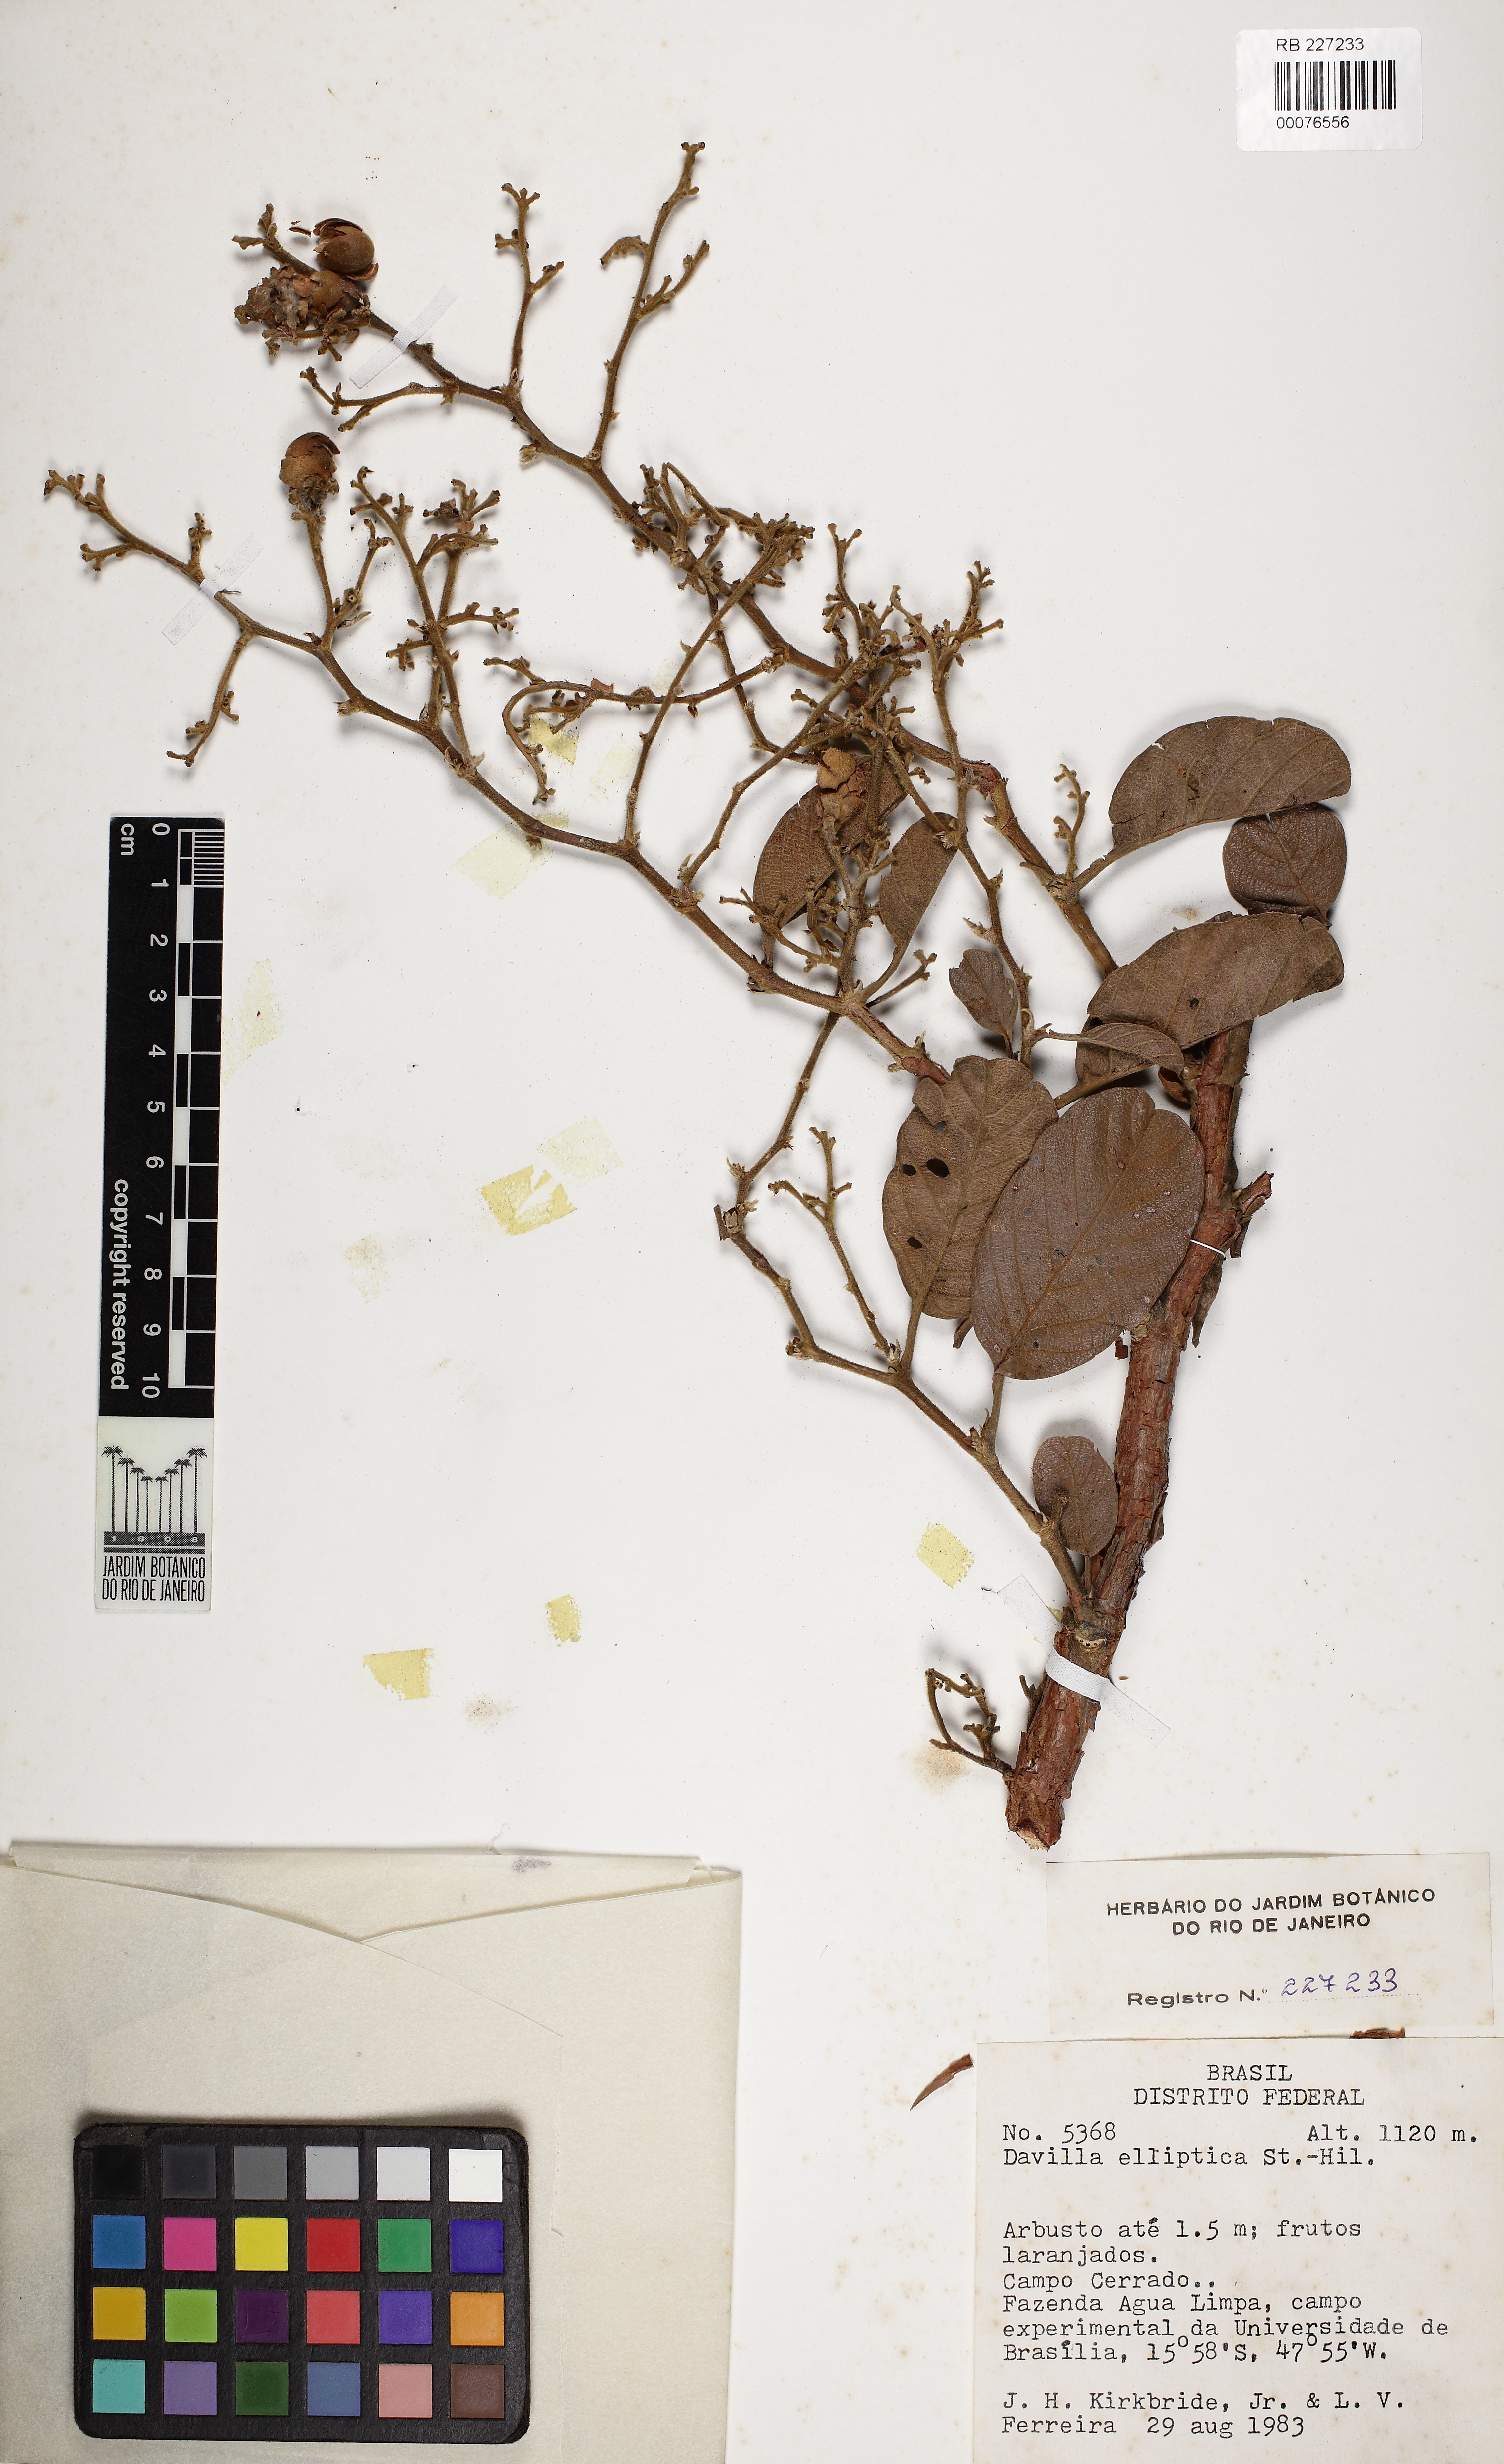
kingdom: Plantae
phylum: Tracheophyta
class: Magnoliopsida
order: Dilleniales
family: Dilleniaceae
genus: Davilla
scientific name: Davilla elliptica
